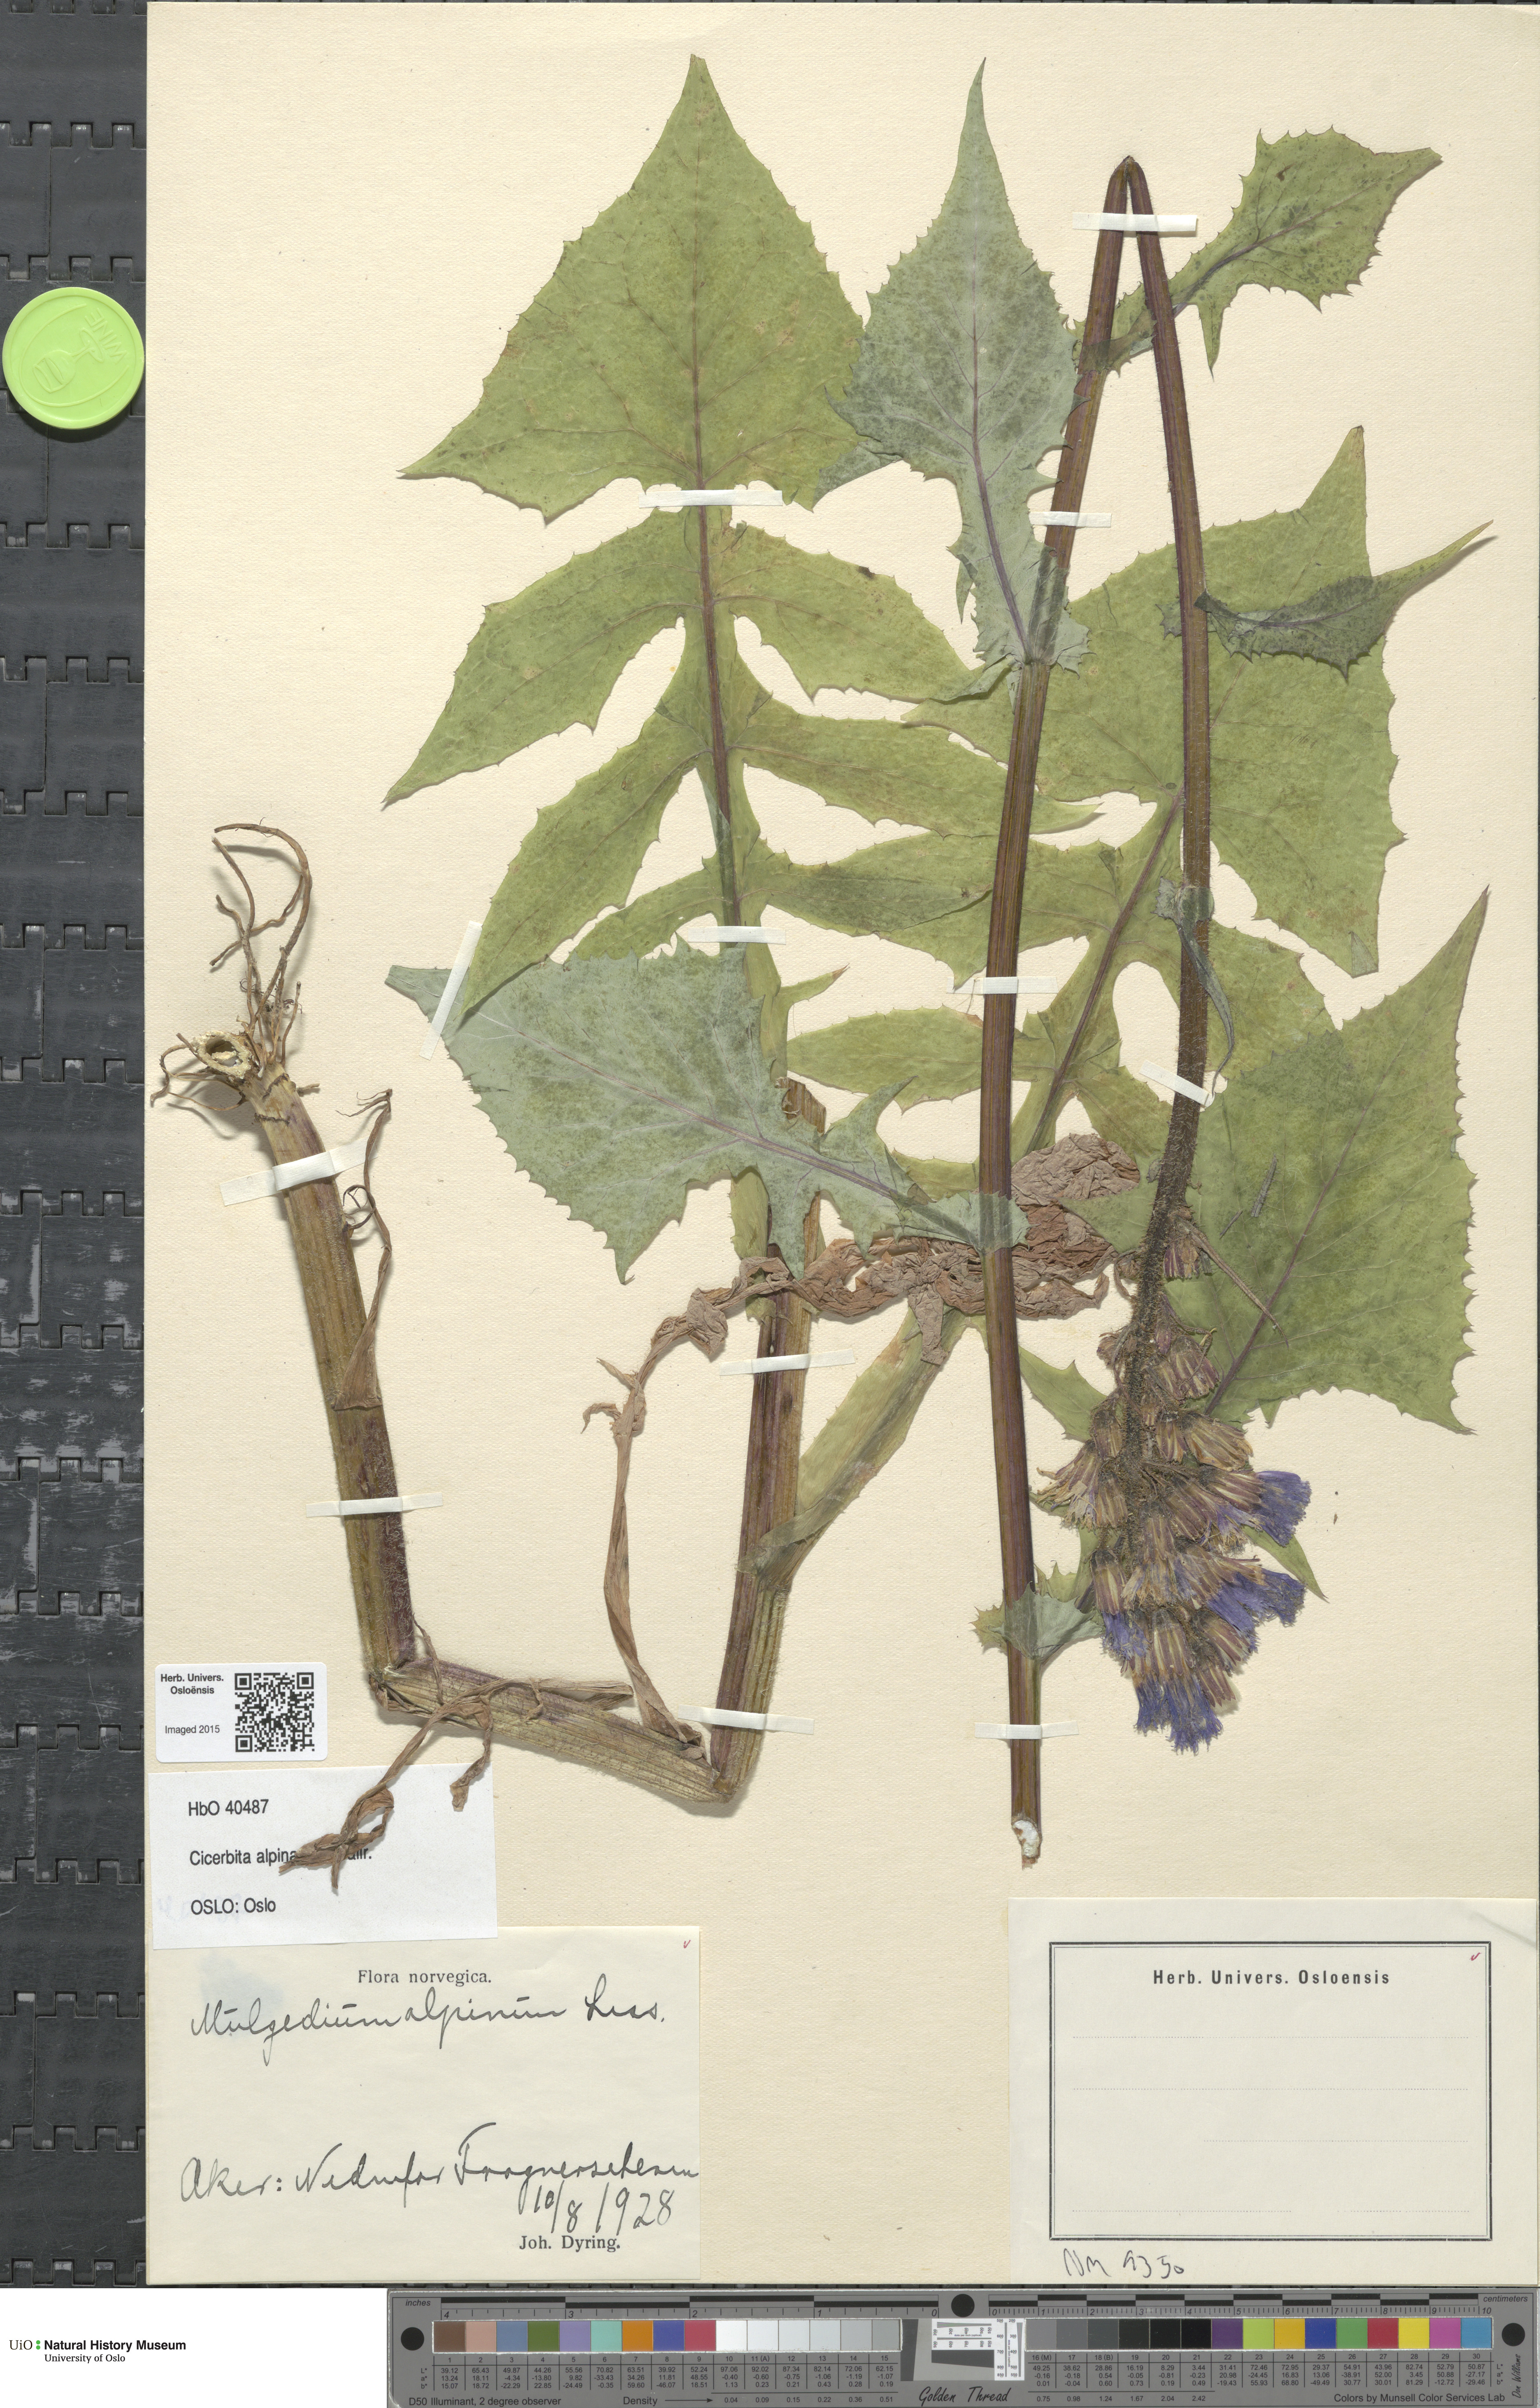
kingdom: Plantae
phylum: Tracheophyta
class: Magnoliopsida
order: Asterales
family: Asteraceae
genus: Cicerbita
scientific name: Cicerbita alpina
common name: Alpine blue-sow-thistle
